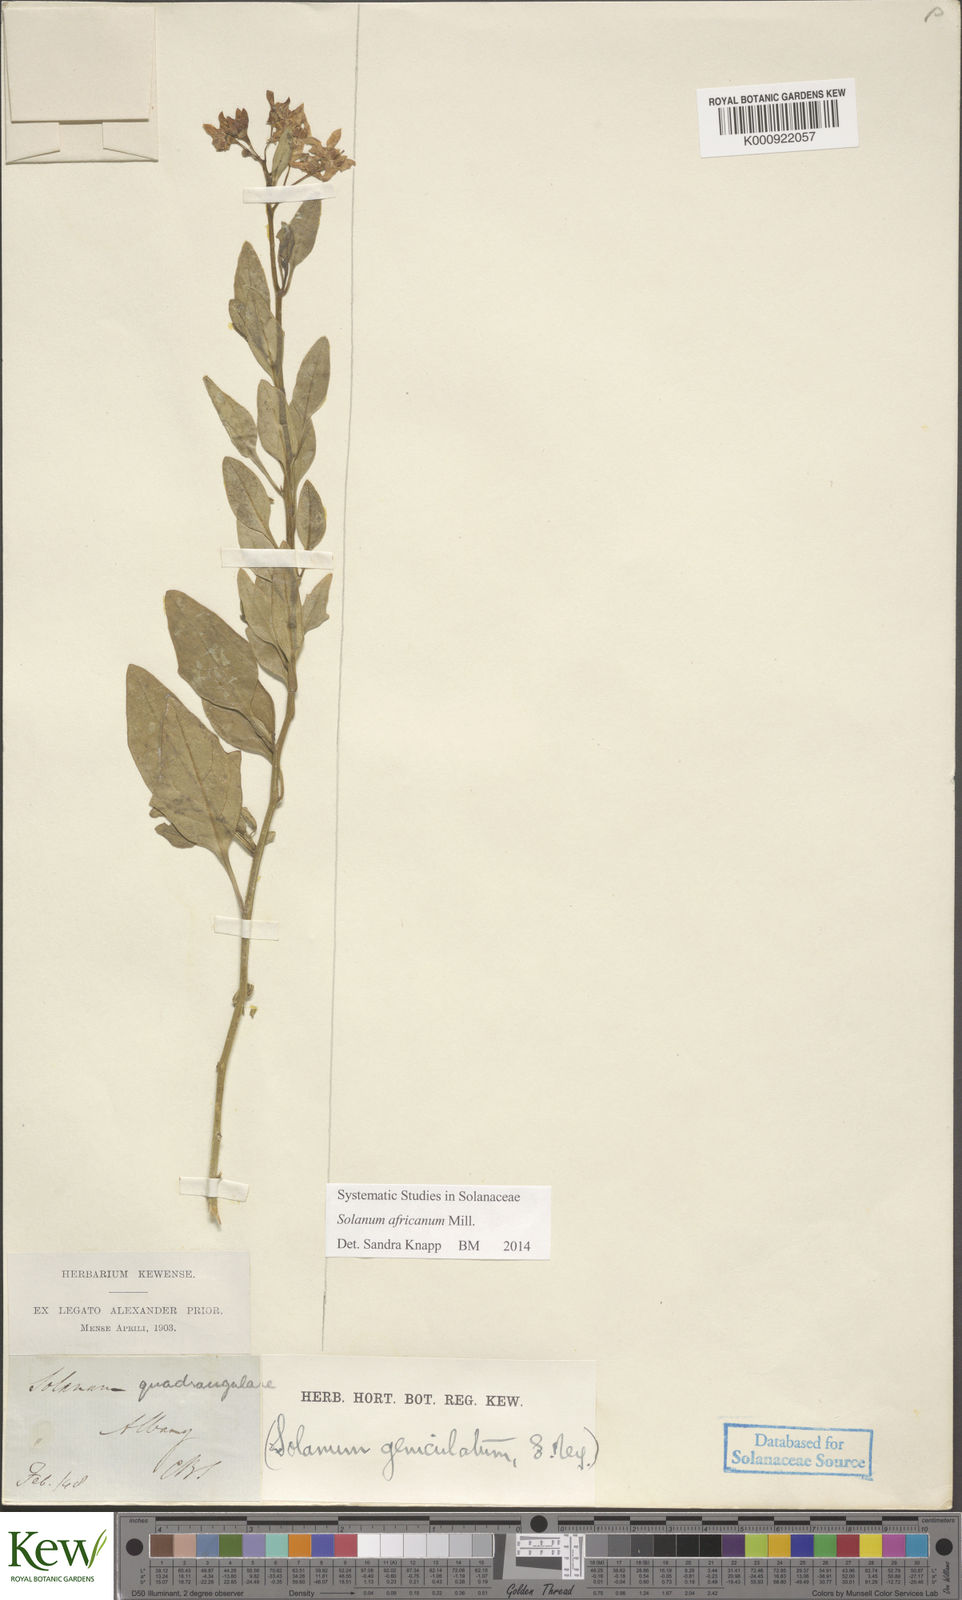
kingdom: Plantae
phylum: Tracheophyta
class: Magnoliopsida
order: Solanales
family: Solanaceae
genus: Solanum
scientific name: Solanum africanum
